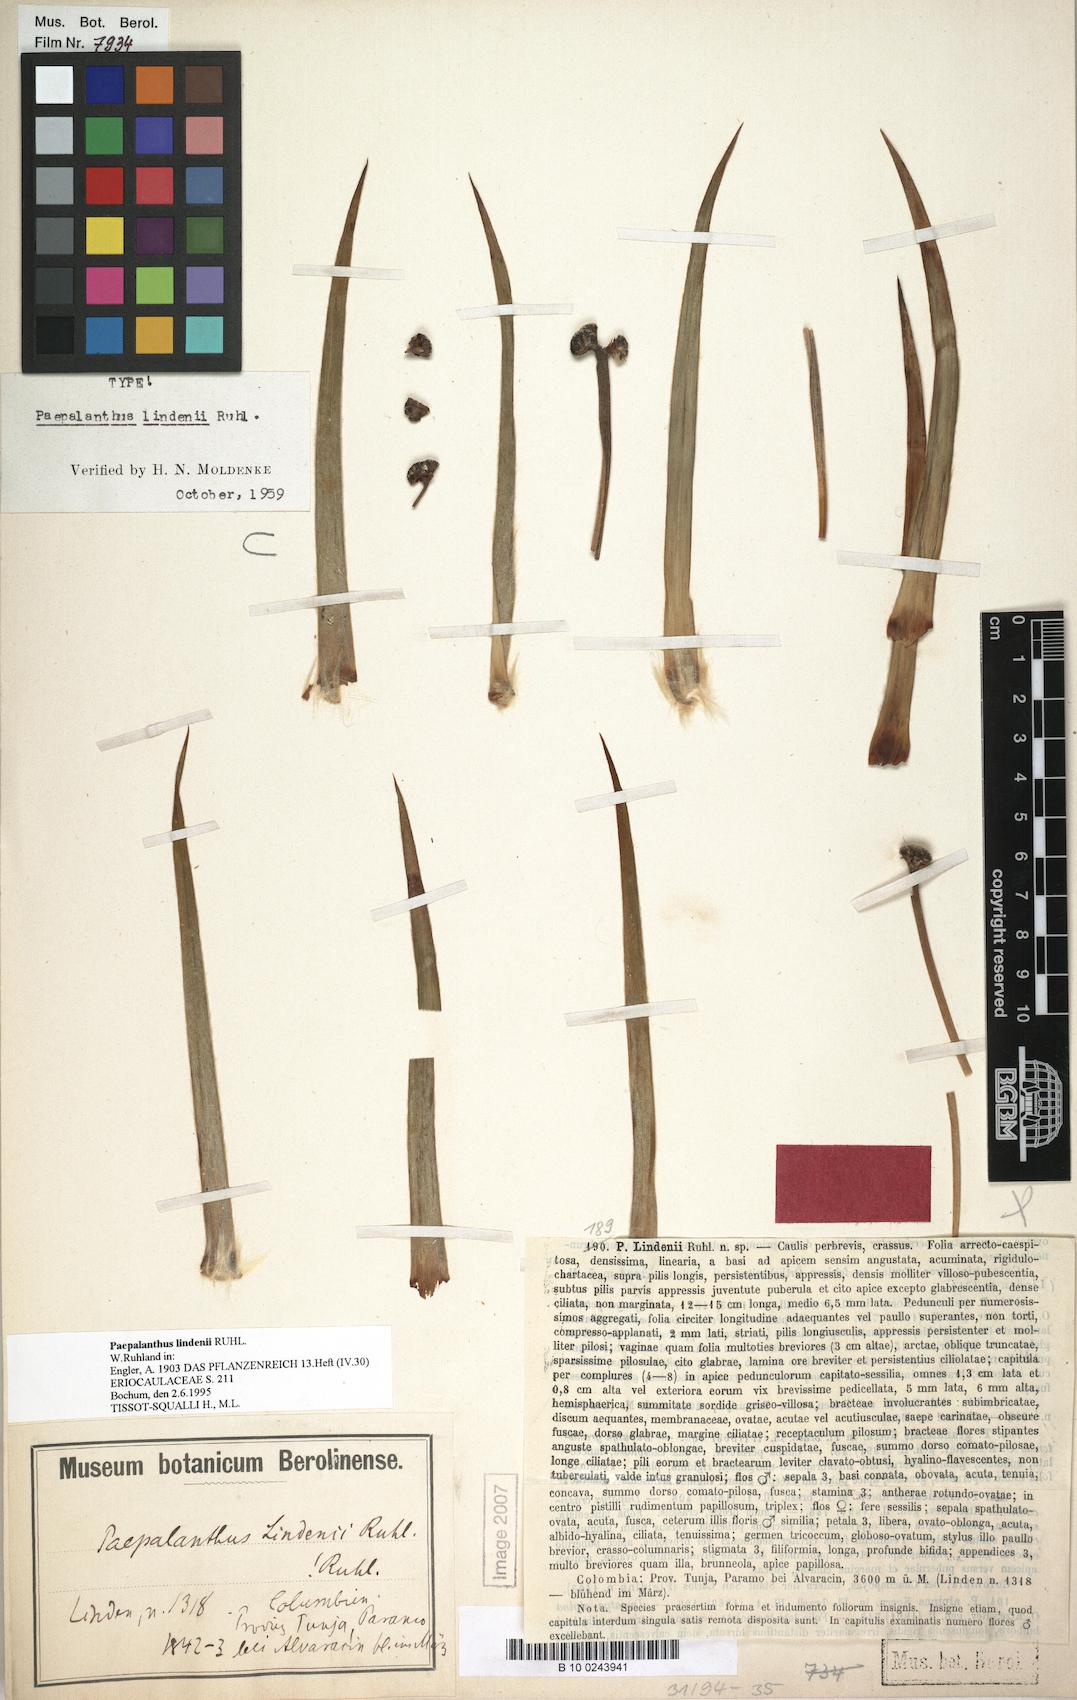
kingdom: Plantae
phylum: Tracheophyta
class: Liliopsida
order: Poales
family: Eriocaulaceae
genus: Paepalanthus
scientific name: Paepalanthus lindenii
